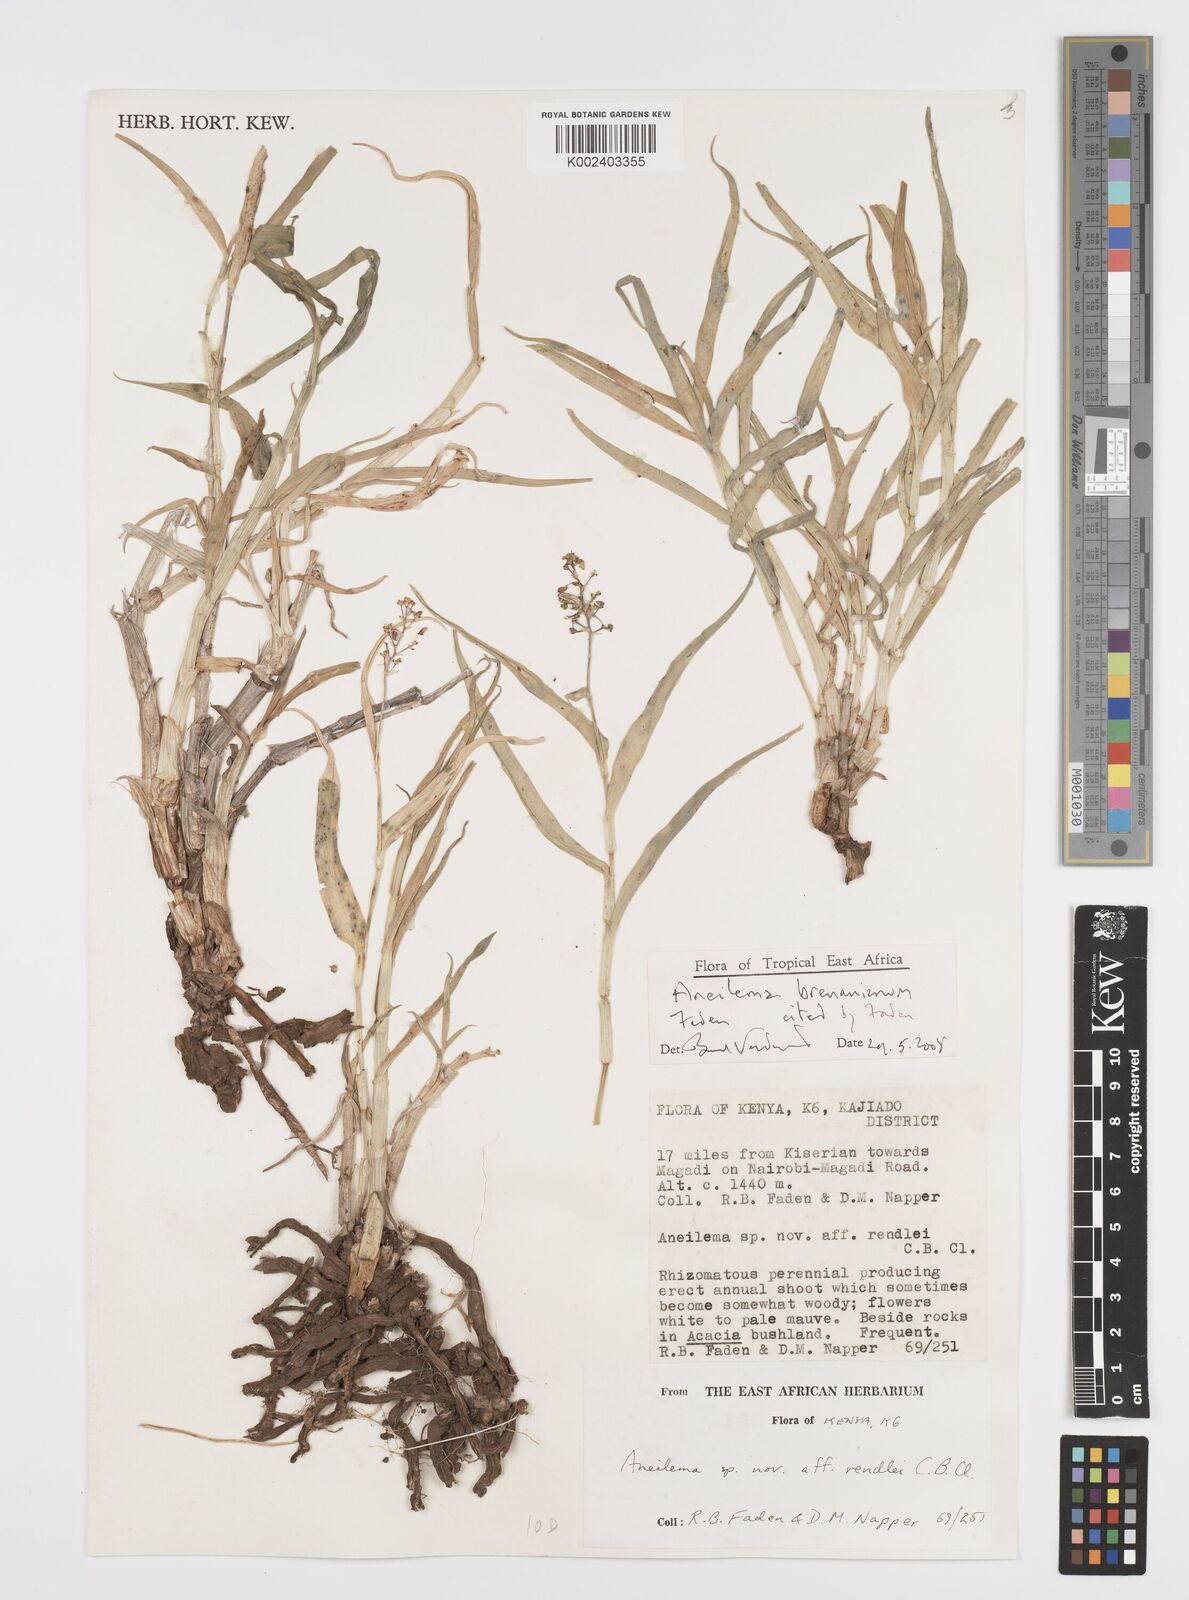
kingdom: Plantae
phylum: Tracheophyta
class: Liliopsida
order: Commelinales
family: Commelinaceae
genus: Aneilema
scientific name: Aneilema brenanianum
